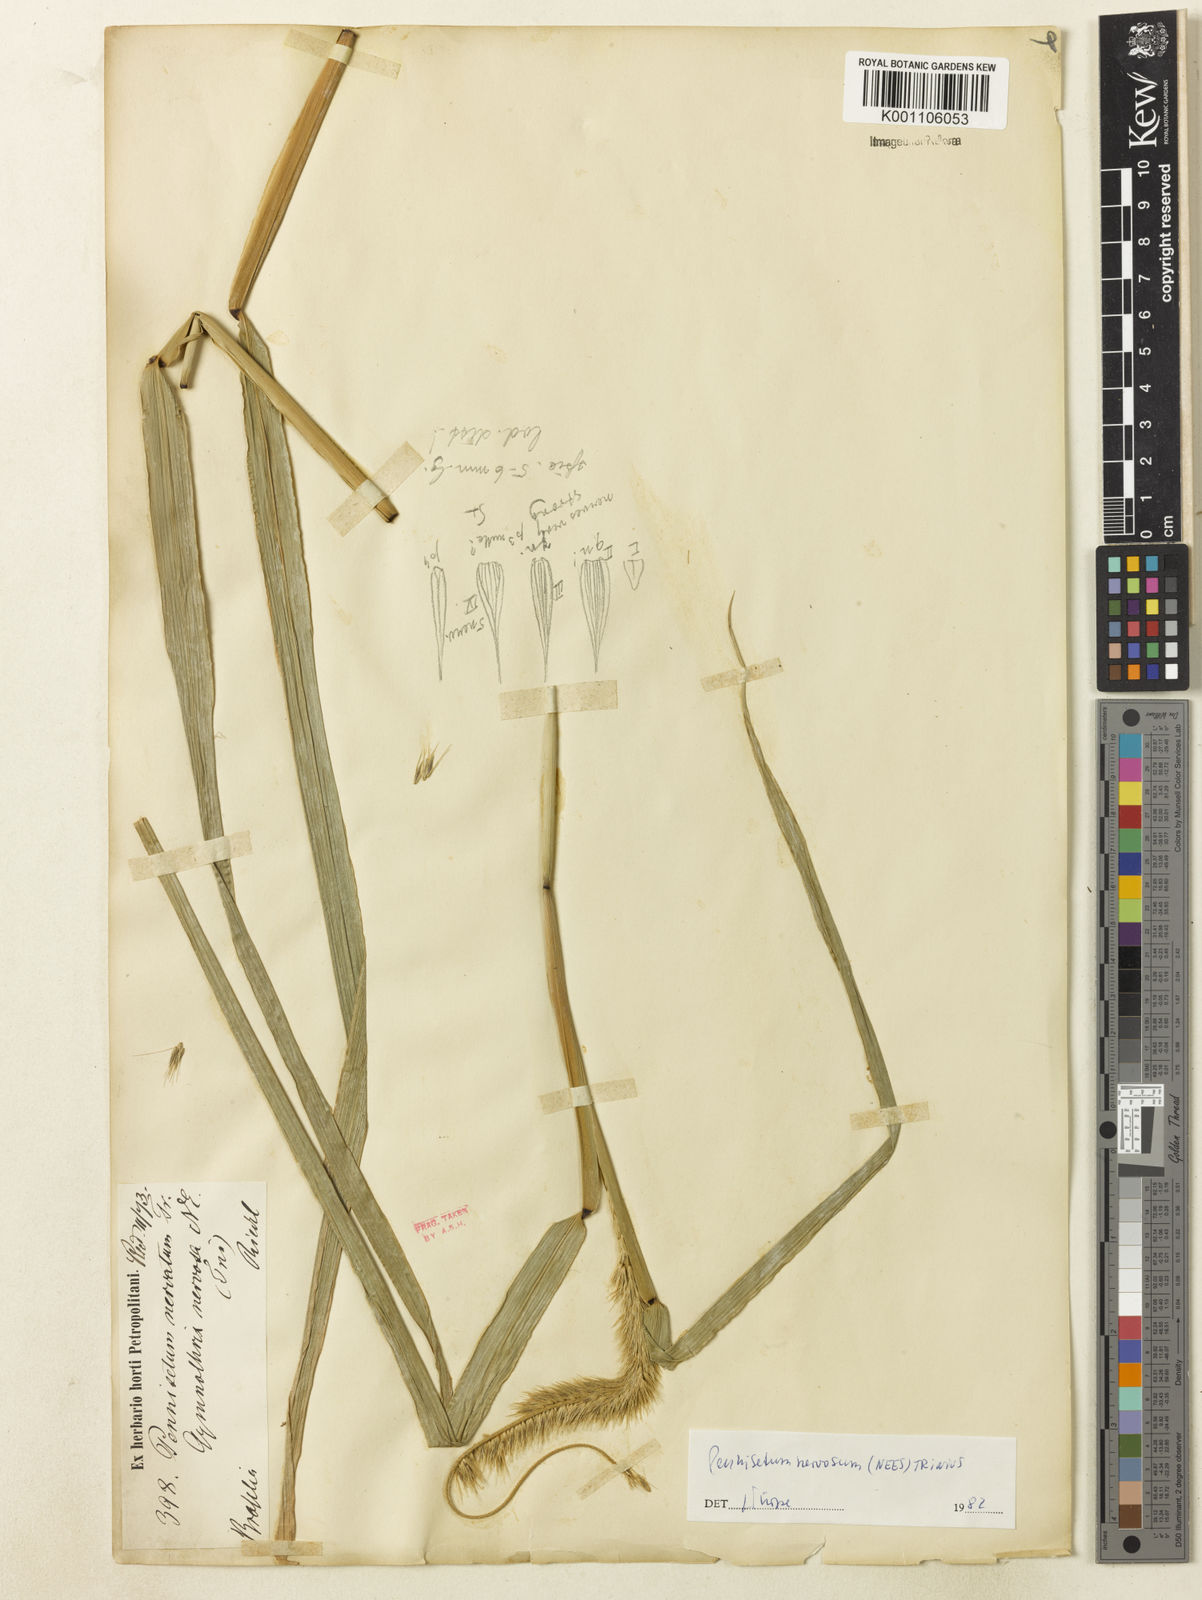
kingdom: Plantae
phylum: Tracheophyta
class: Liliopsida
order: Poales
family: Poaceae
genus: Cenchrus
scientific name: Cenchrus nervosus
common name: Bentspike fountaingrass
